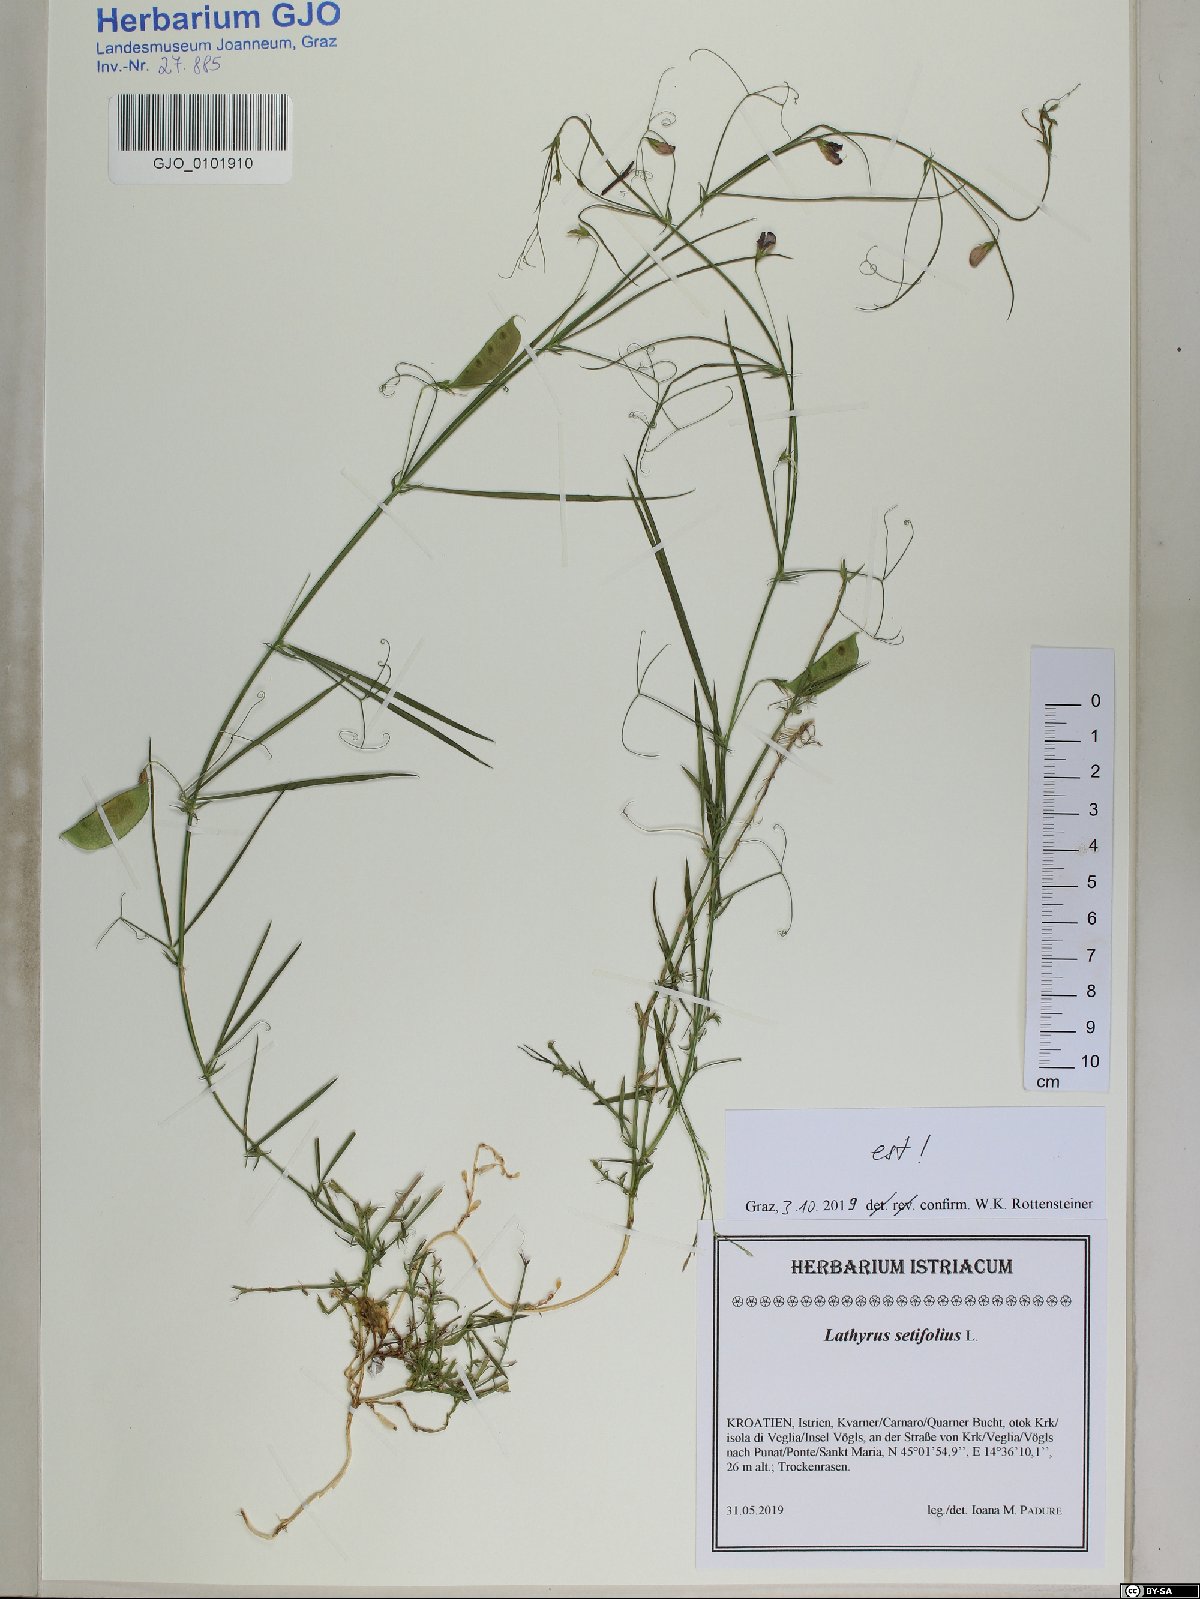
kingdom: Plantae
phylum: Tracheophyta
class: Magnoliopsida
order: Fabales
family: Fabaceae
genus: Lathyrus
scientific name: Lathyrus setifolius
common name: Brown vetchling
